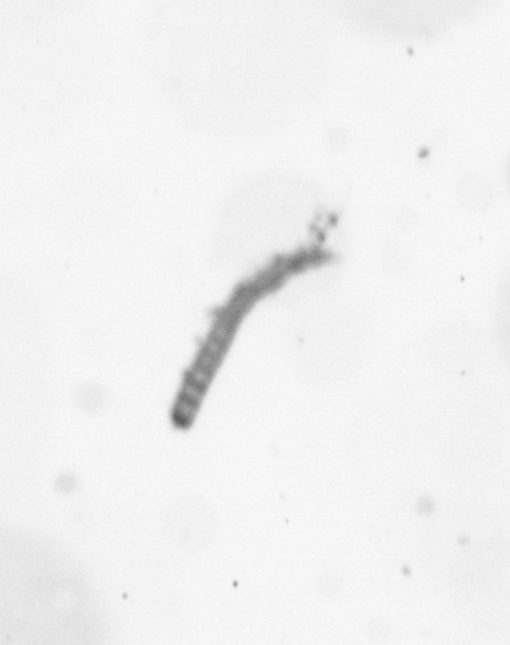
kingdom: Chromista
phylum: Ochrophyta
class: Bacillariophyceae
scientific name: Bacillariophyceae
